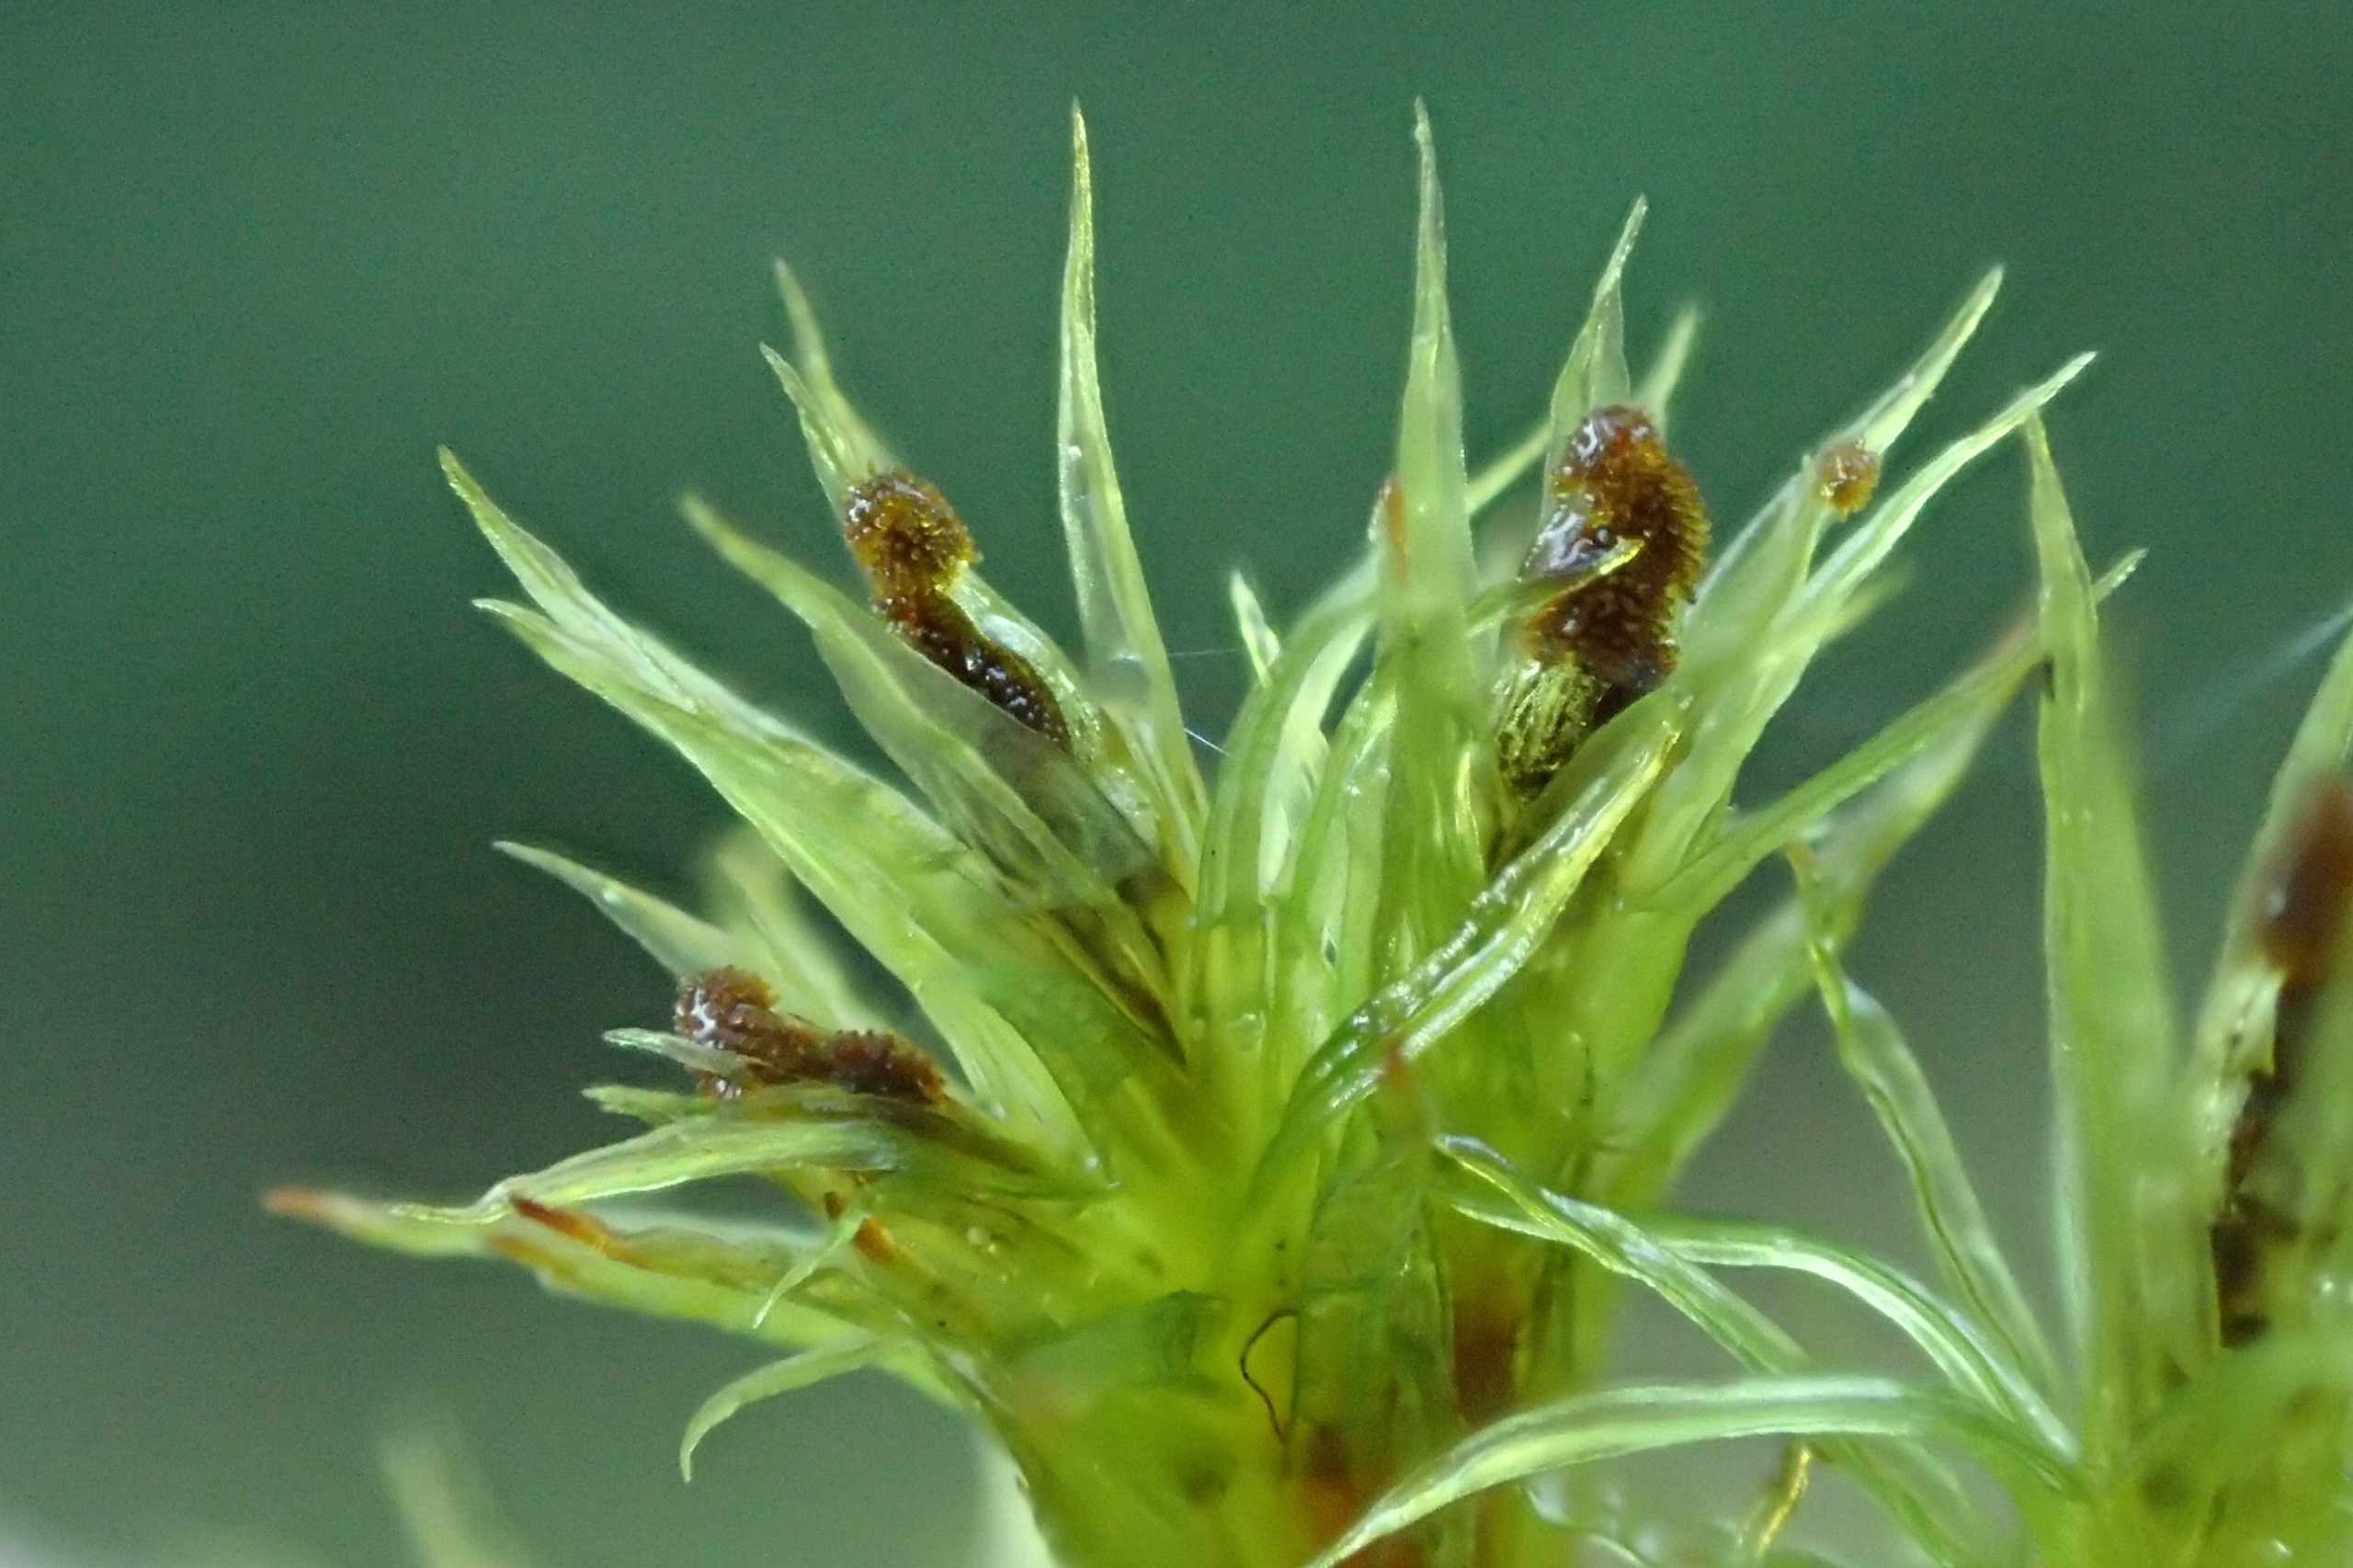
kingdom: Plantae
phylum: Bryophyta
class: Bryopsida
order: Orthotrichales
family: Orthotrichaceae
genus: Plenogemma
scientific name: Plenogemma phyllantha
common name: Stor låddenhætte
